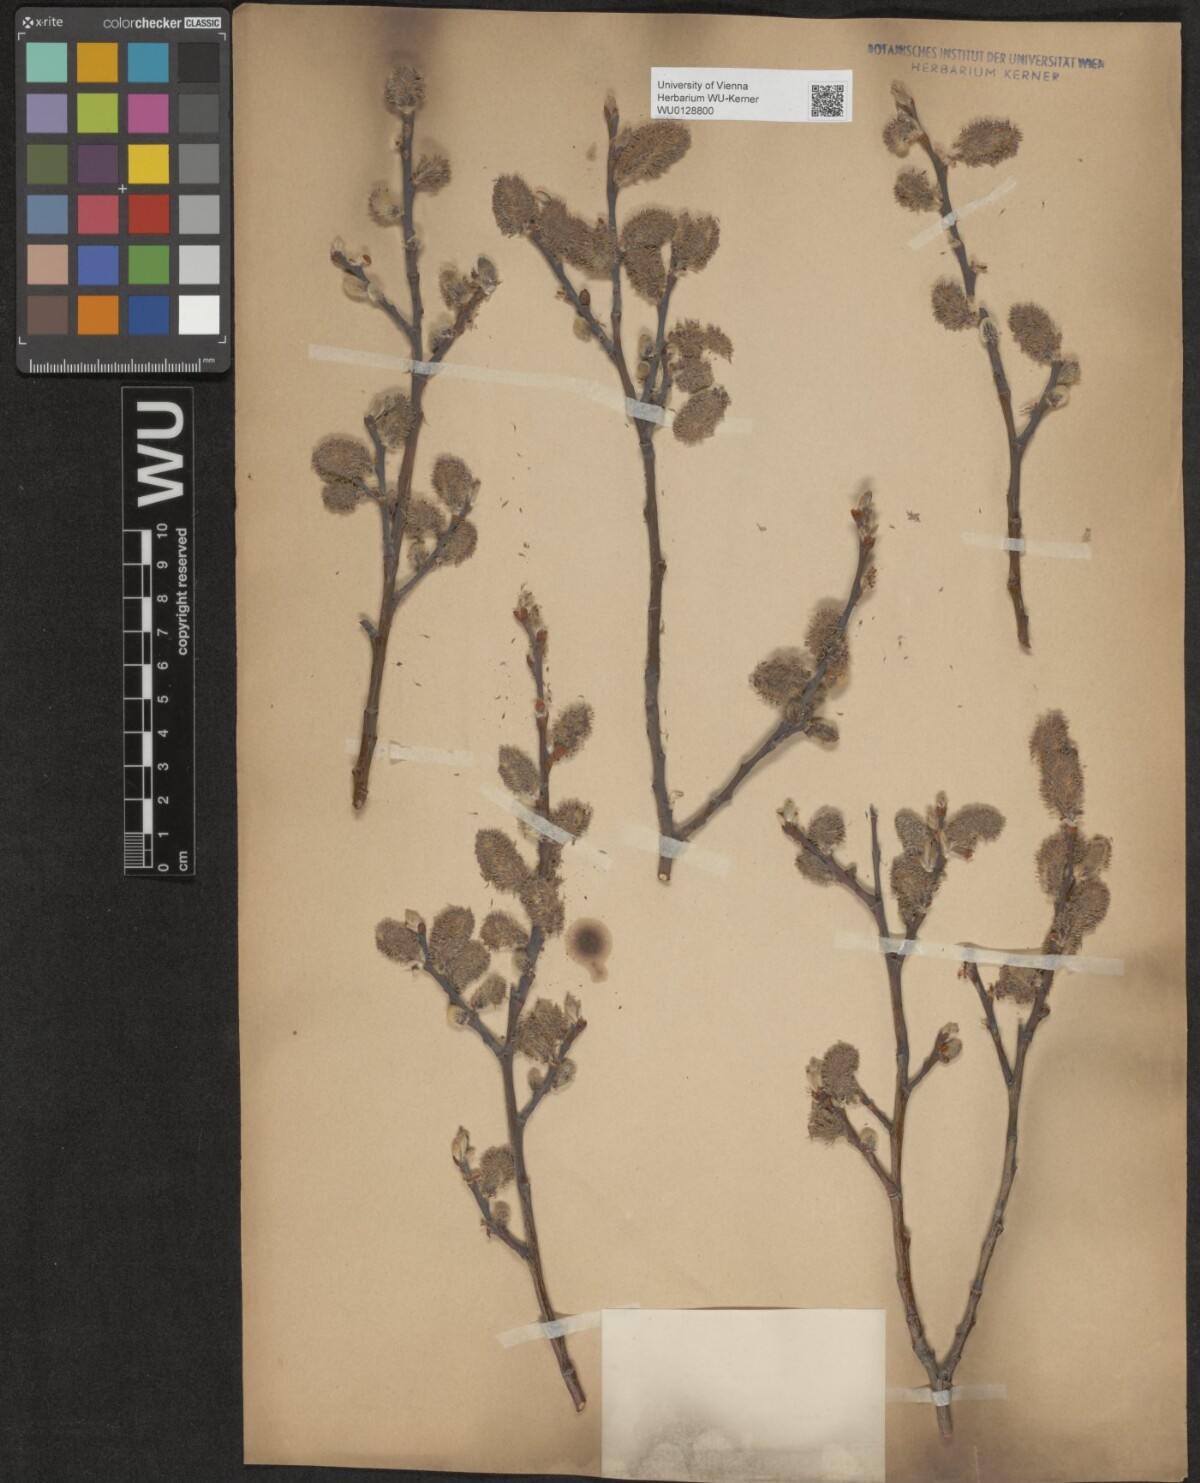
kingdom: Plantae
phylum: Tracheophyta
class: Magnoliopsida
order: Malpighiales
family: Salicaceae
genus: Salix
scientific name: Salix appendiculata
